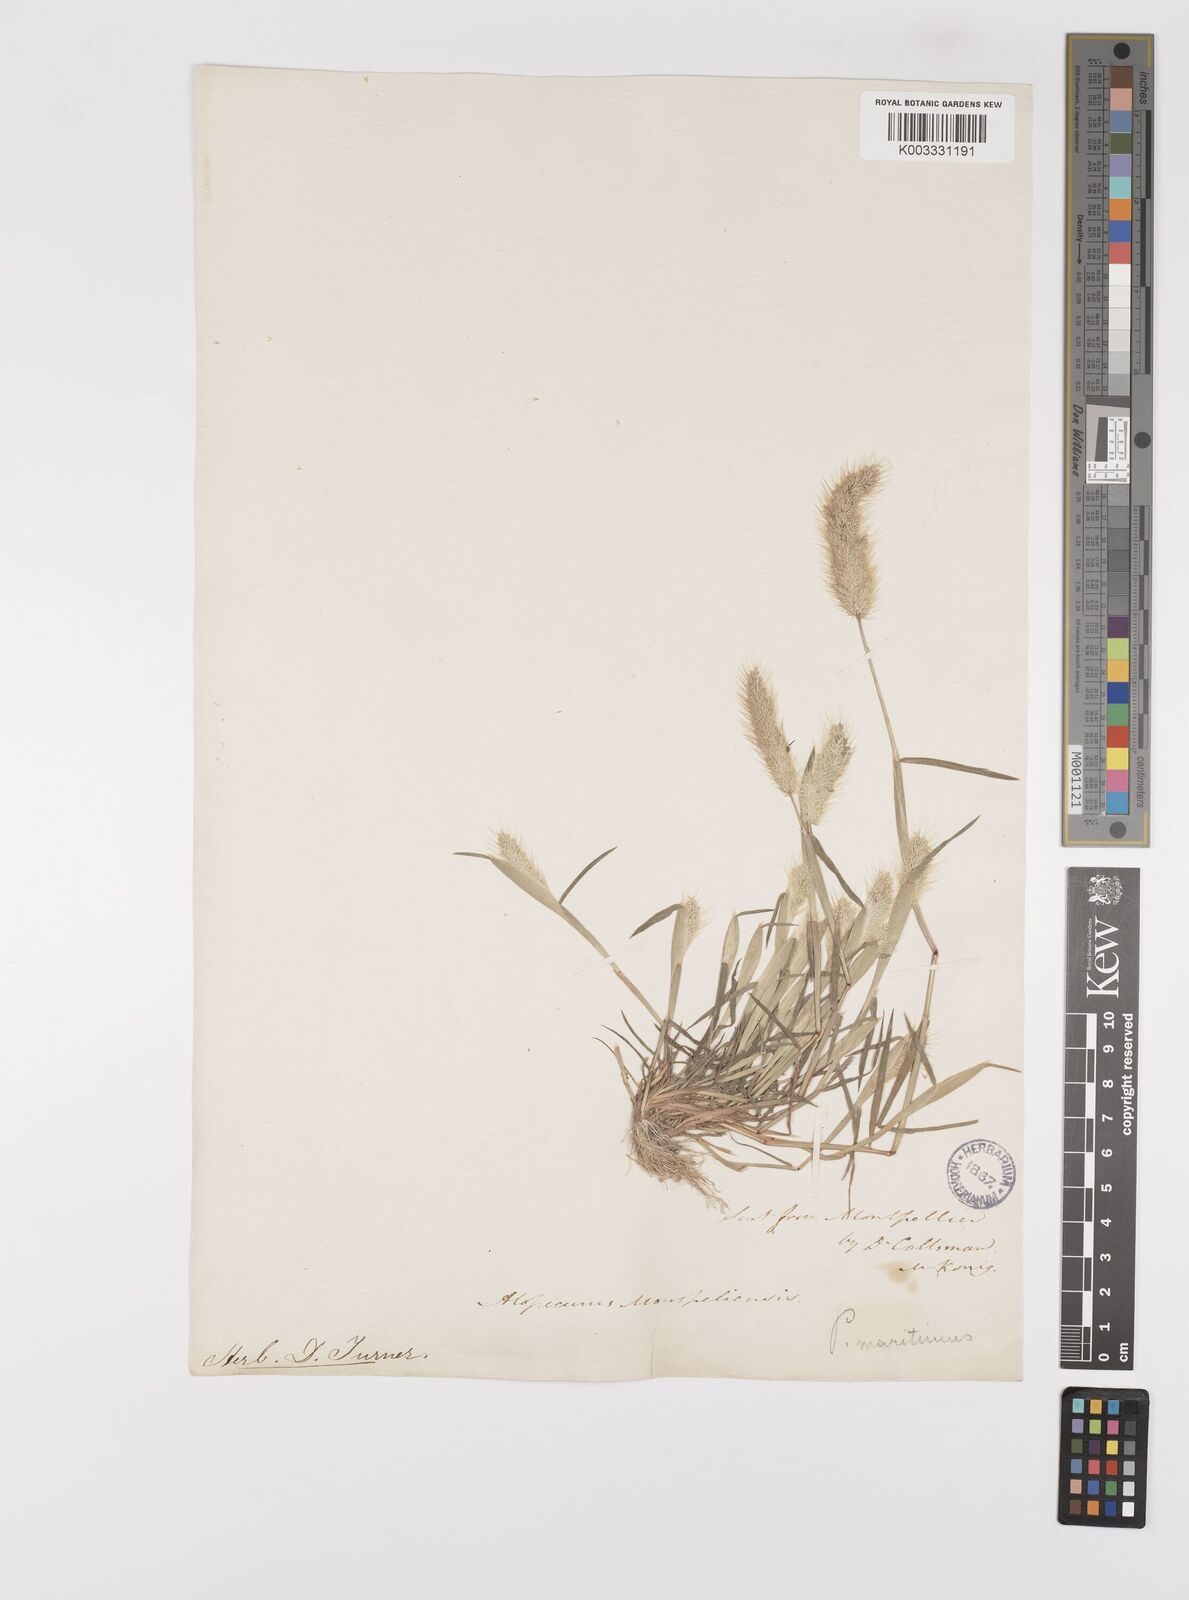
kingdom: Plantae
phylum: Tracheophyta
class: Liliopsida
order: Poales
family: Poaceae
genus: Polypogon
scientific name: Polypogon maritimus
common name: Mediterranean rabbitsfoot grass
